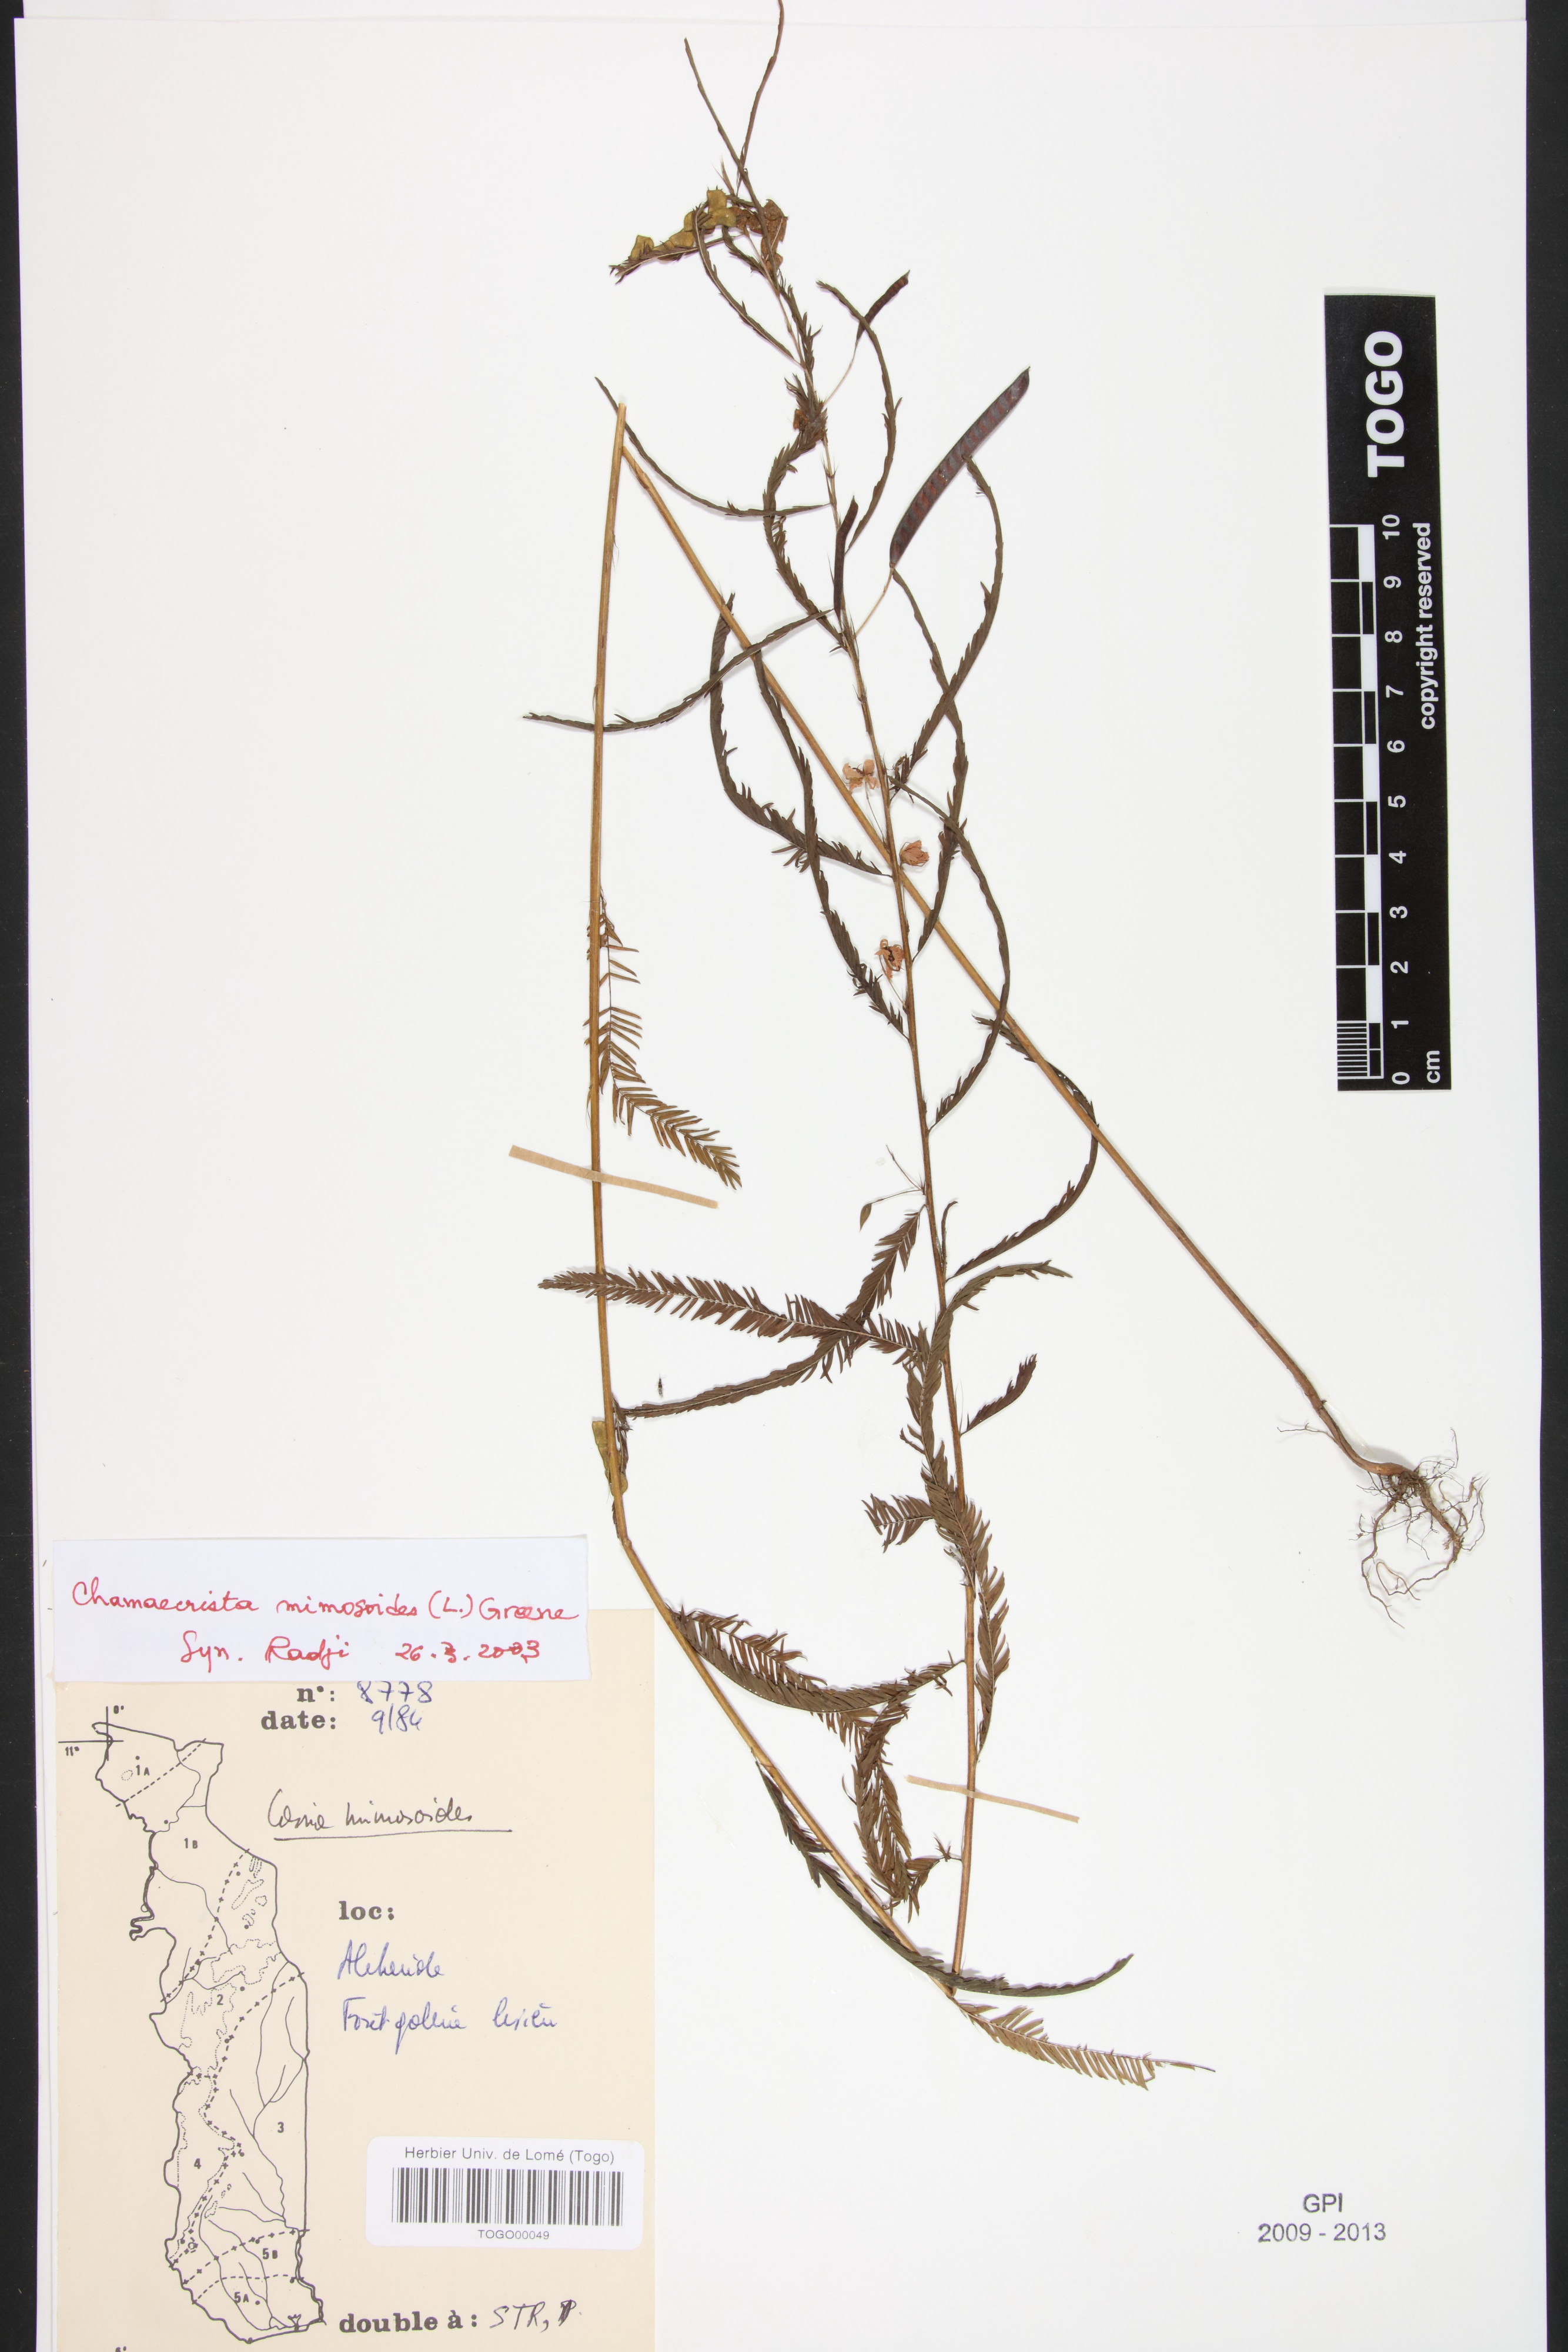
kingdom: Plantae
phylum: Tracheophyta
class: Magnoliopsida
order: Fabales
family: Fabaceae
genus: Chamaecrista
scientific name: Chamaecrista mimosoides
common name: Fish-bone cassia
